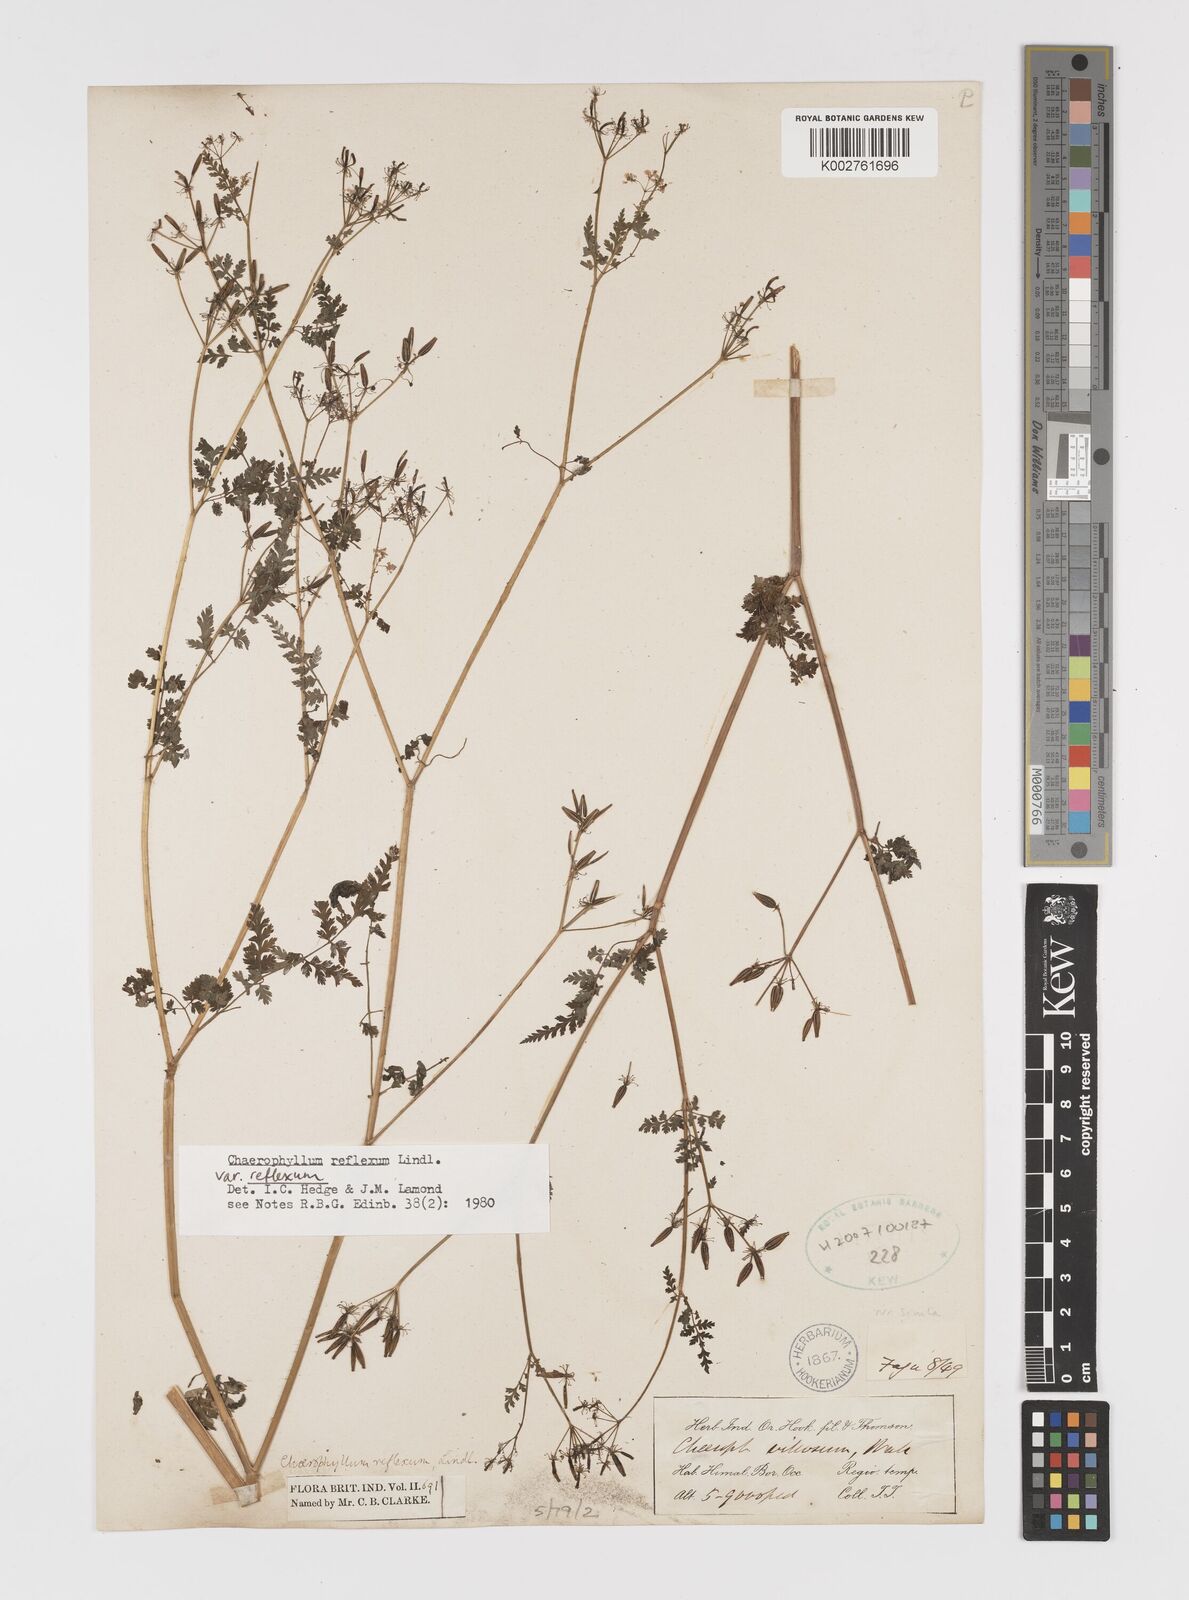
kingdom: Plantae
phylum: Tracheophyta
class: Magnoliopsida
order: Apiales
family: Apiaceae
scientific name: Apiaceae
